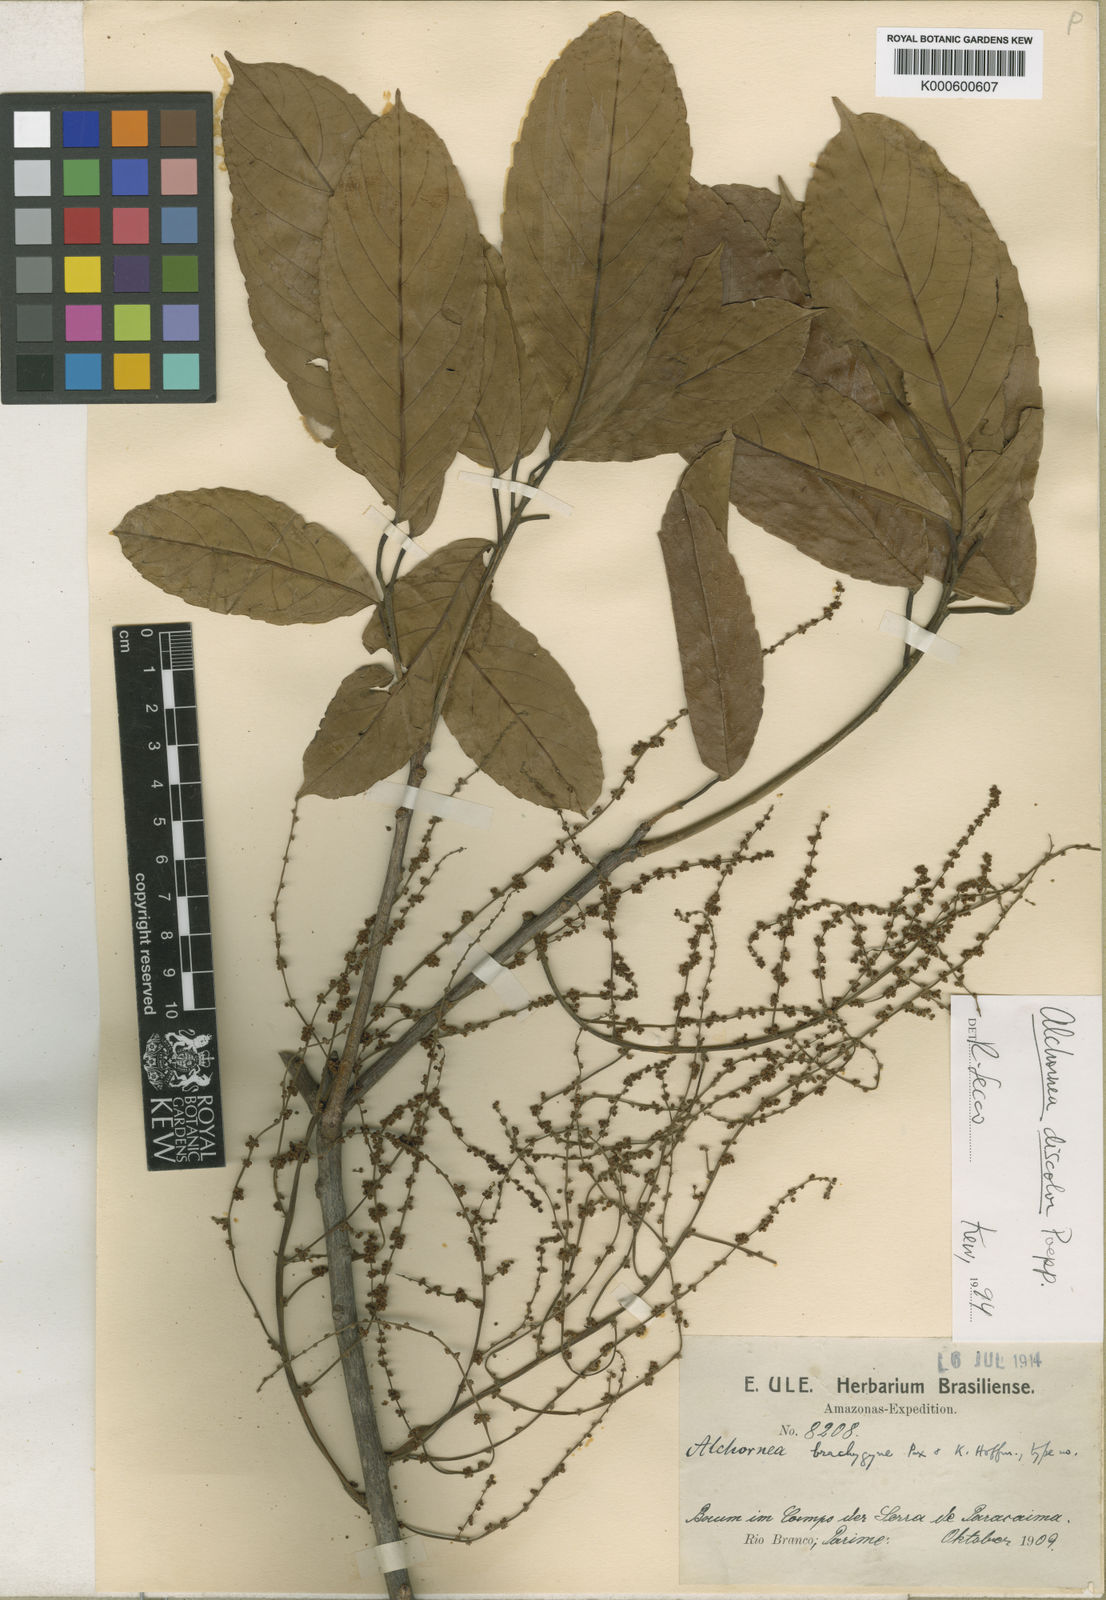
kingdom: Plantae
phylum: Tracheophyta
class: Magnoliopsida
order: Malpighiales
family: Euphorbiaceae
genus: Alchornea
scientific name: Alchornea discolor
